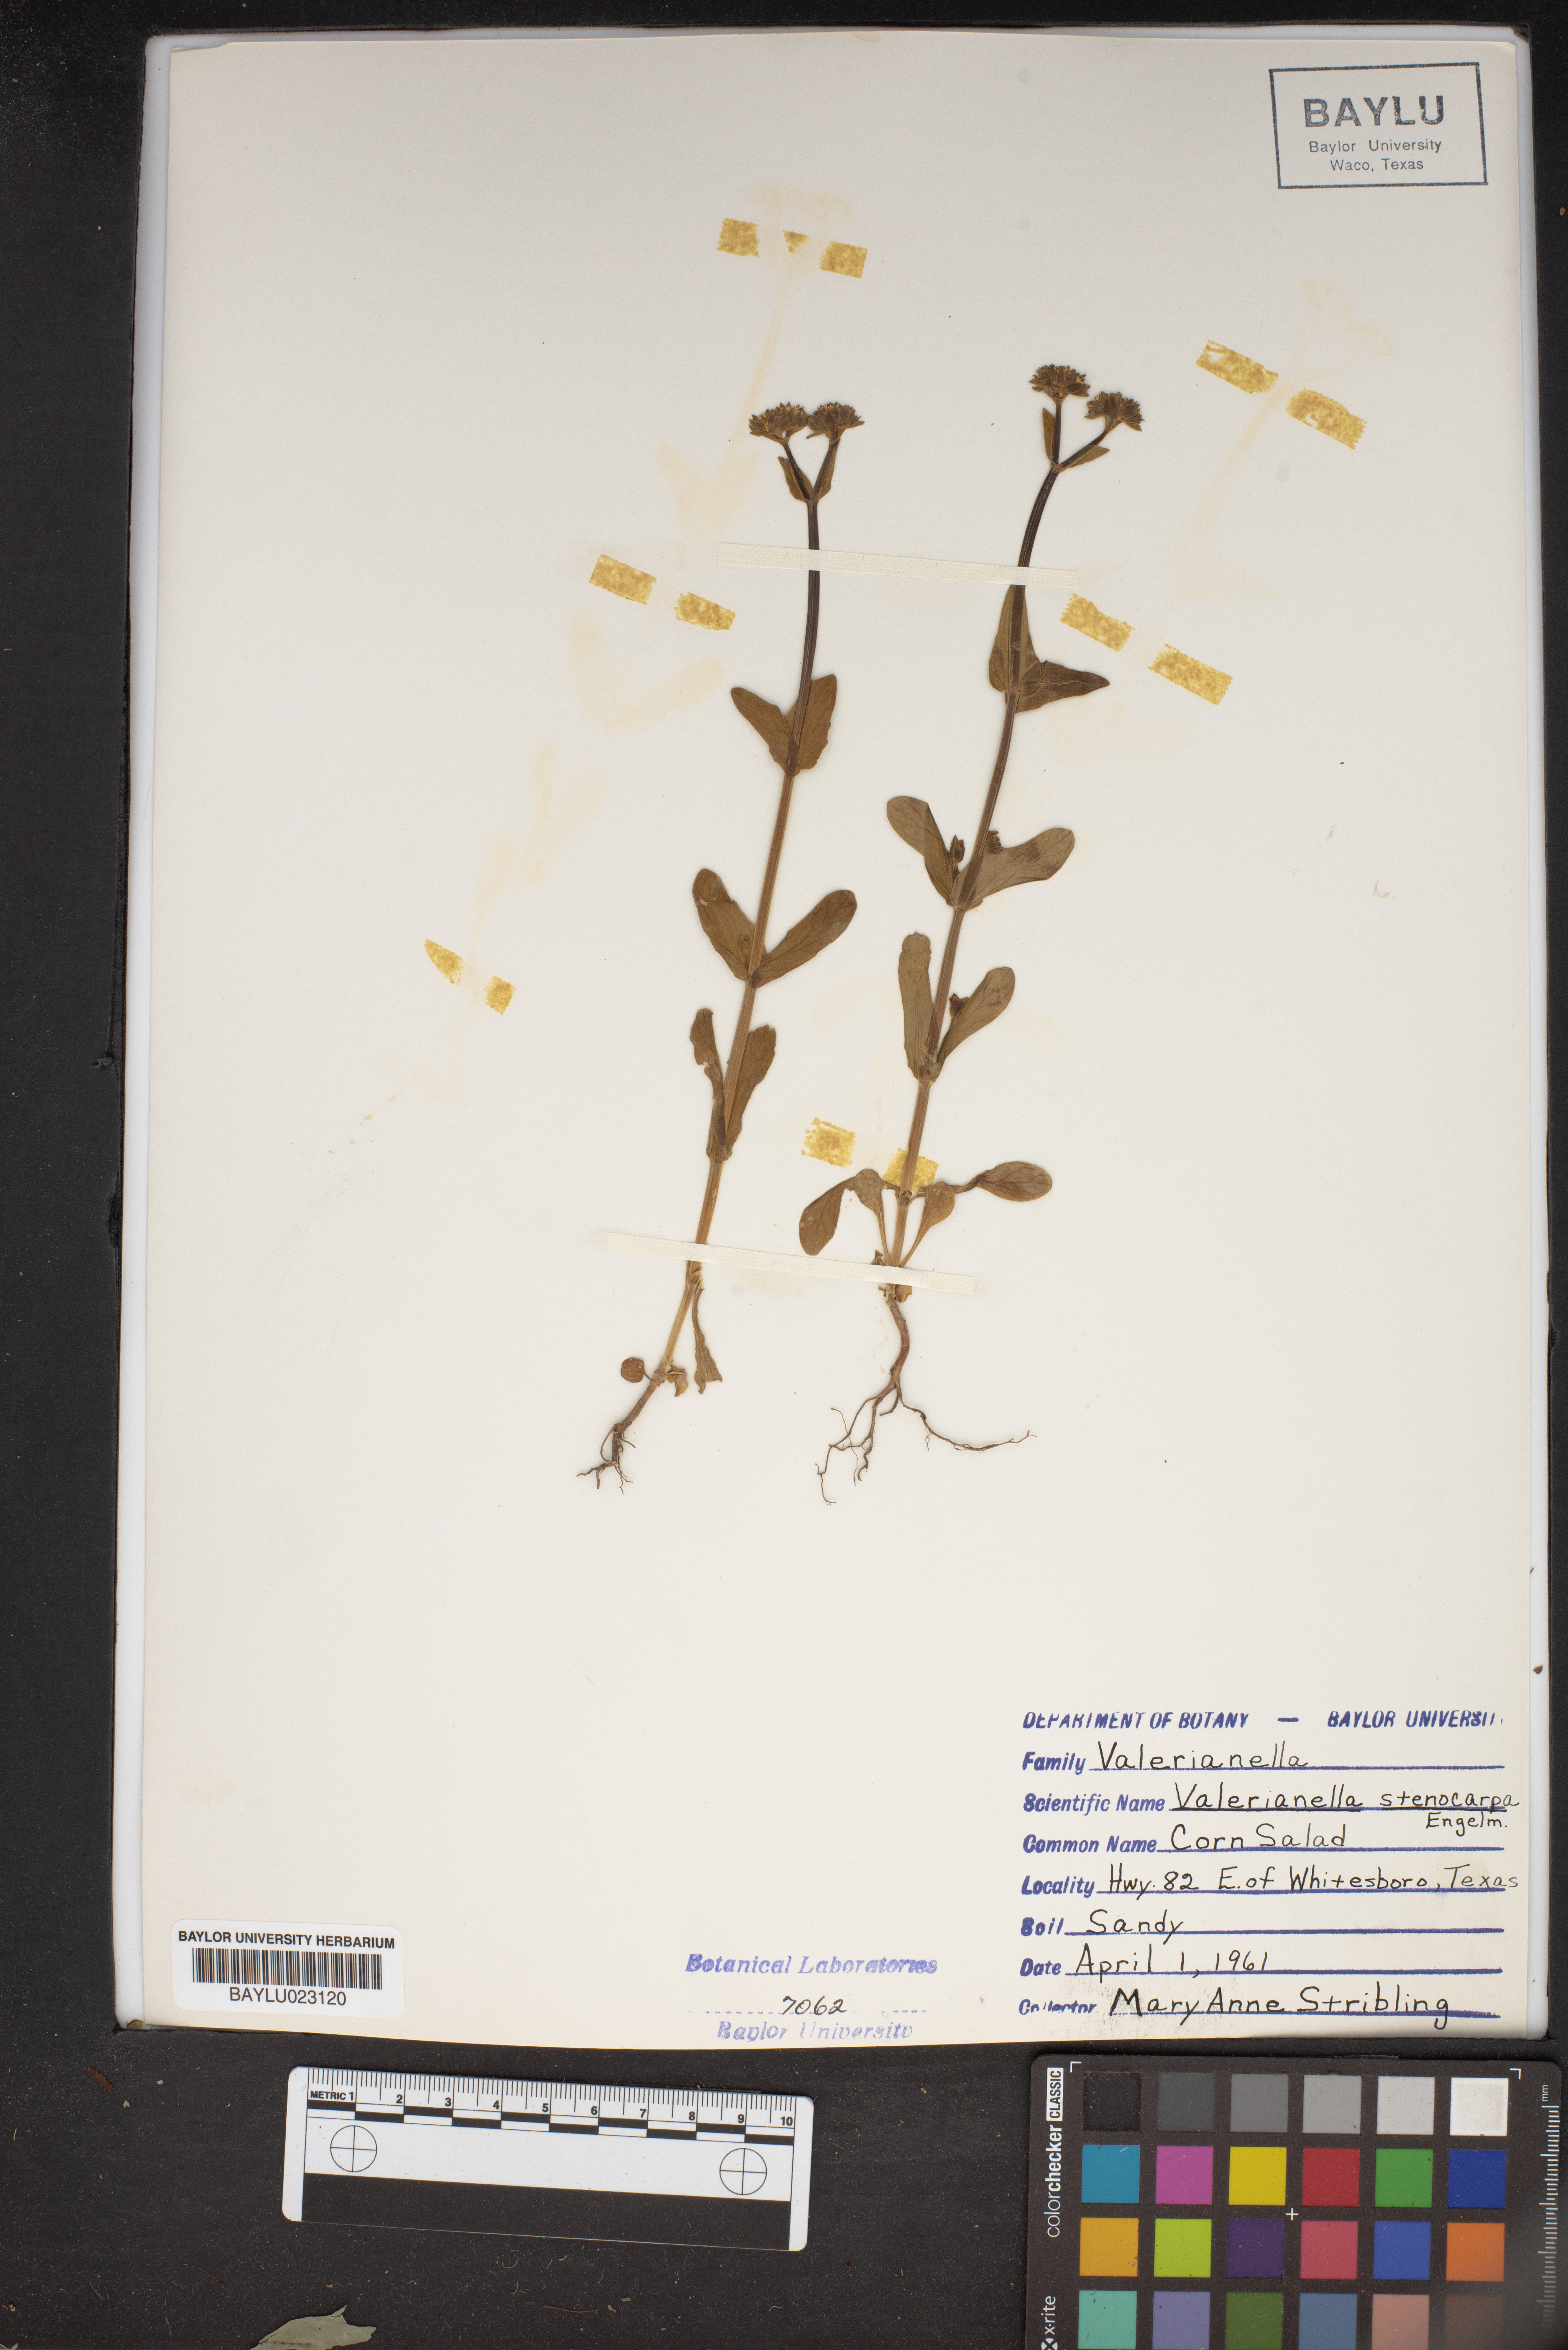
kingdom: Plantae
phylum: Tracheophyta
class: Magnoliopsida
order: Dipsacales
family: Caprifoliaceae
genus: Valerianella
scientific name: Valerianella stenocarpa
